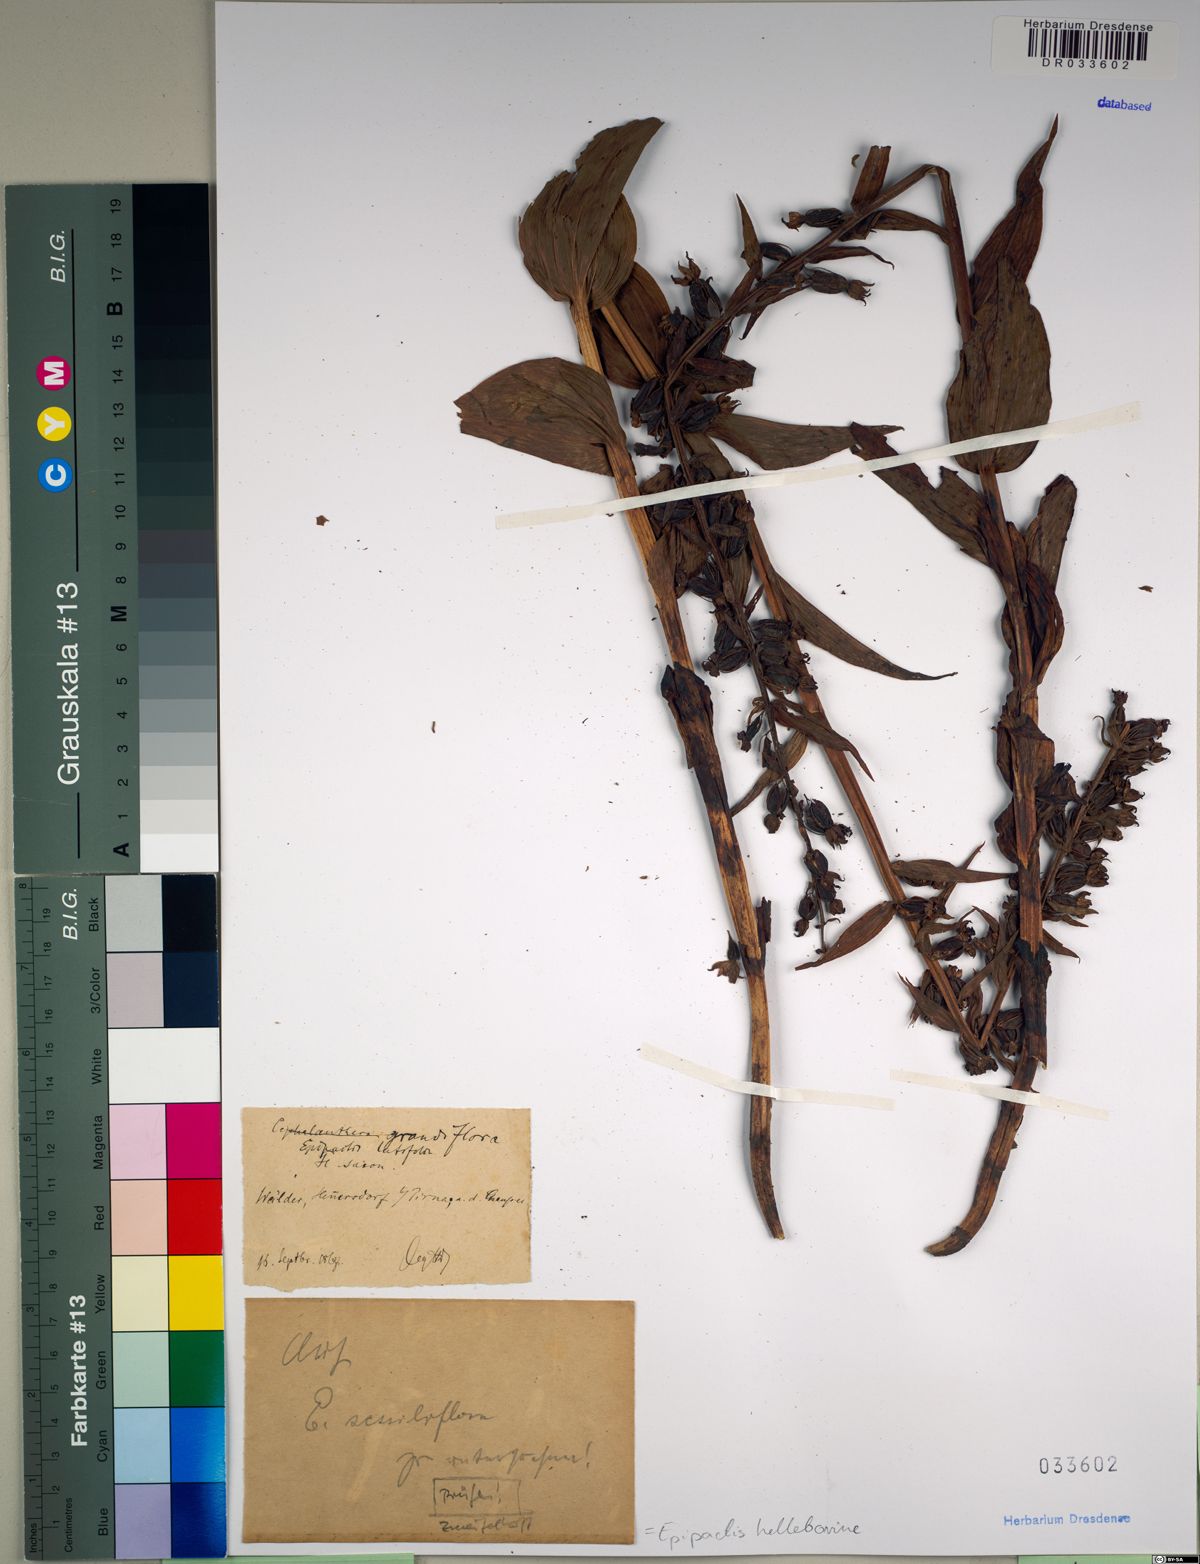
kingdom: Plantae
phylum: Tracheophyta
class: Liliopsida
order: Asparagales
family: Orchidaceae
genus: Epipactis
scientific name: Epipactis helleborine
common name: Broad-leaved helleborine
